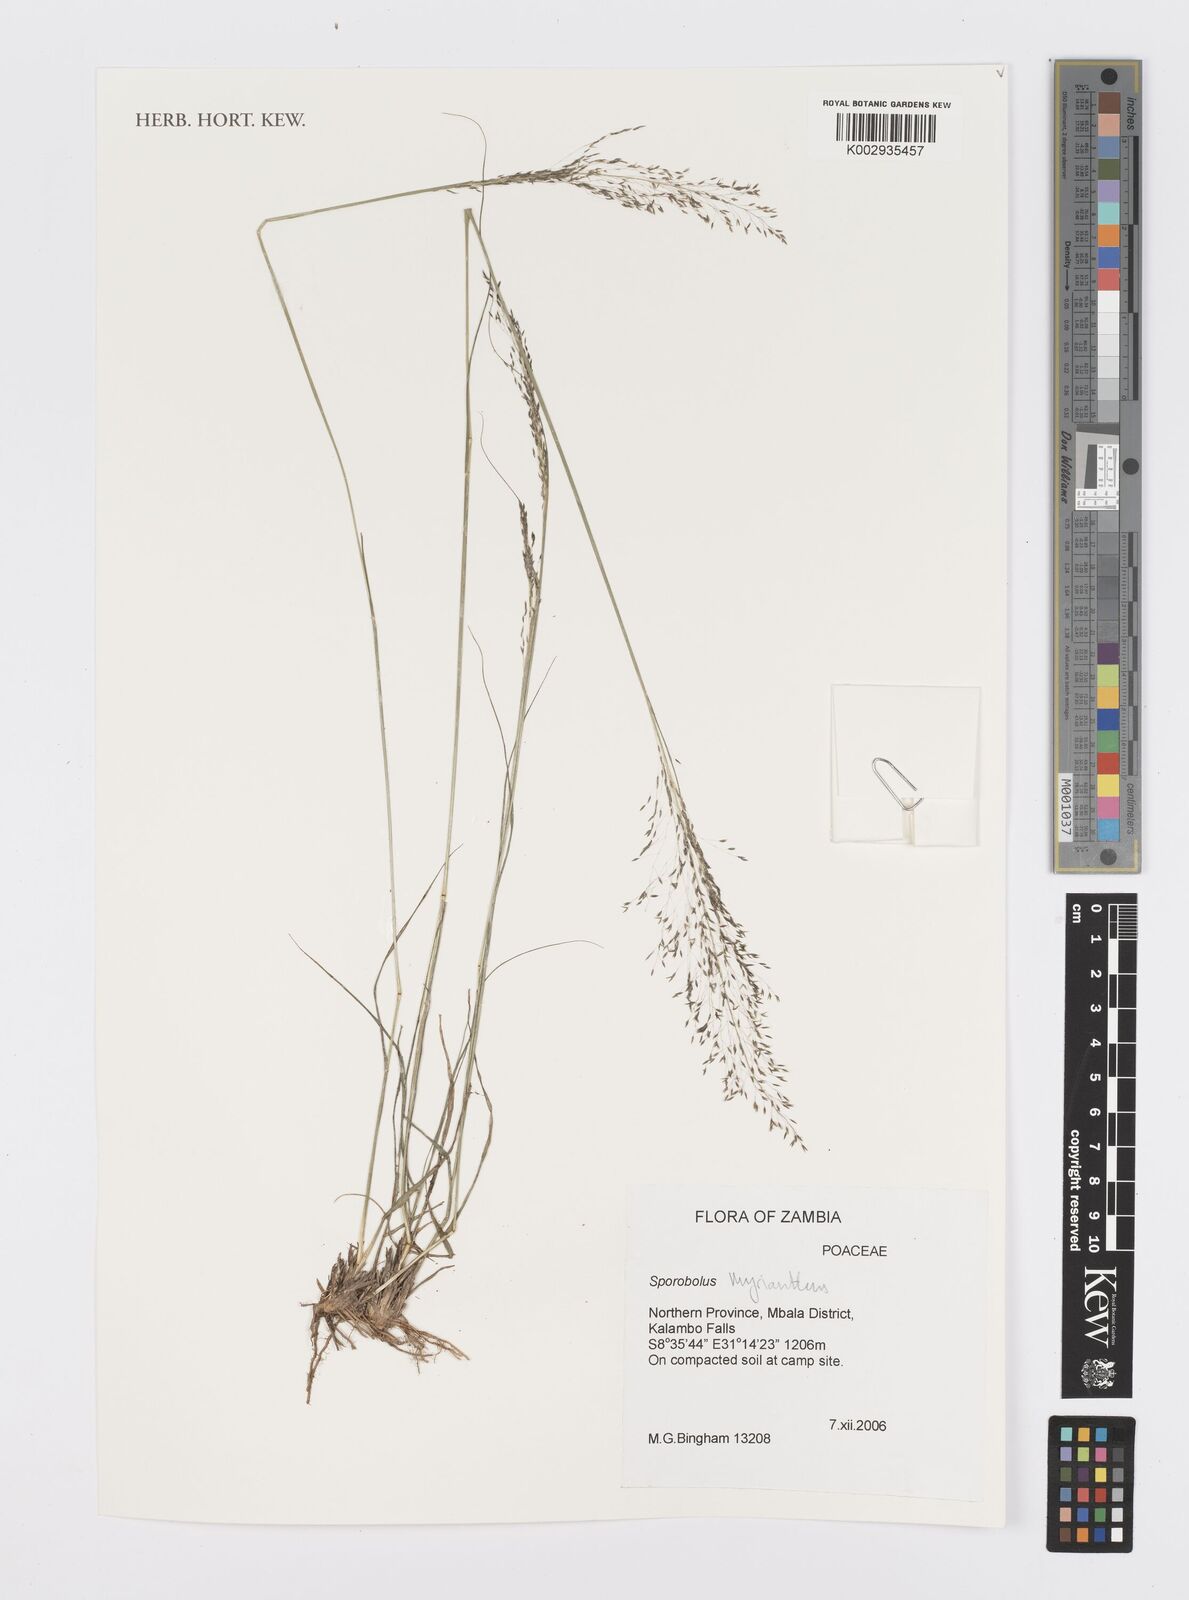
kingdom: Plantae
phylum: Tracheophyta
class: Liliopsida
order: Poales
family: Poaceae
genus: Sporobolus
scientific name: Sporobolus myrianthus
